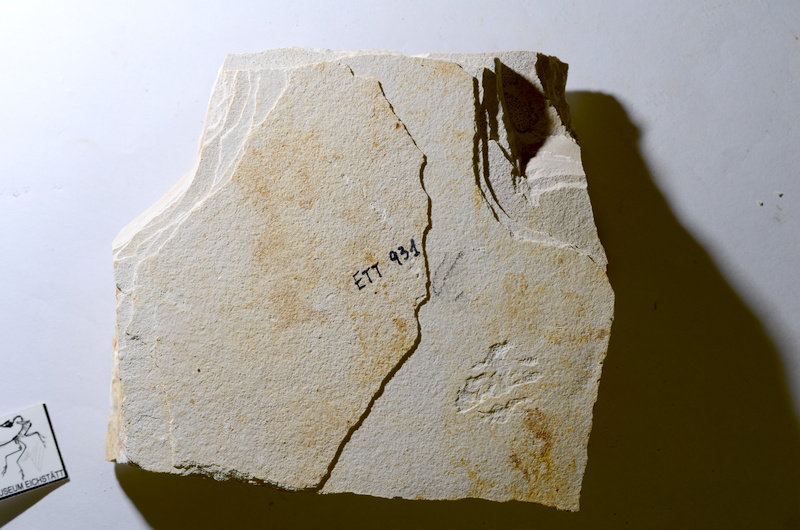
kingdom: Animalia
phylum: Chordata
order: Salmoniformes
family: Orthogonikleithridae
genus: Orthogonikleithrus
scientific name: Orthogonikleithrus hoelli
